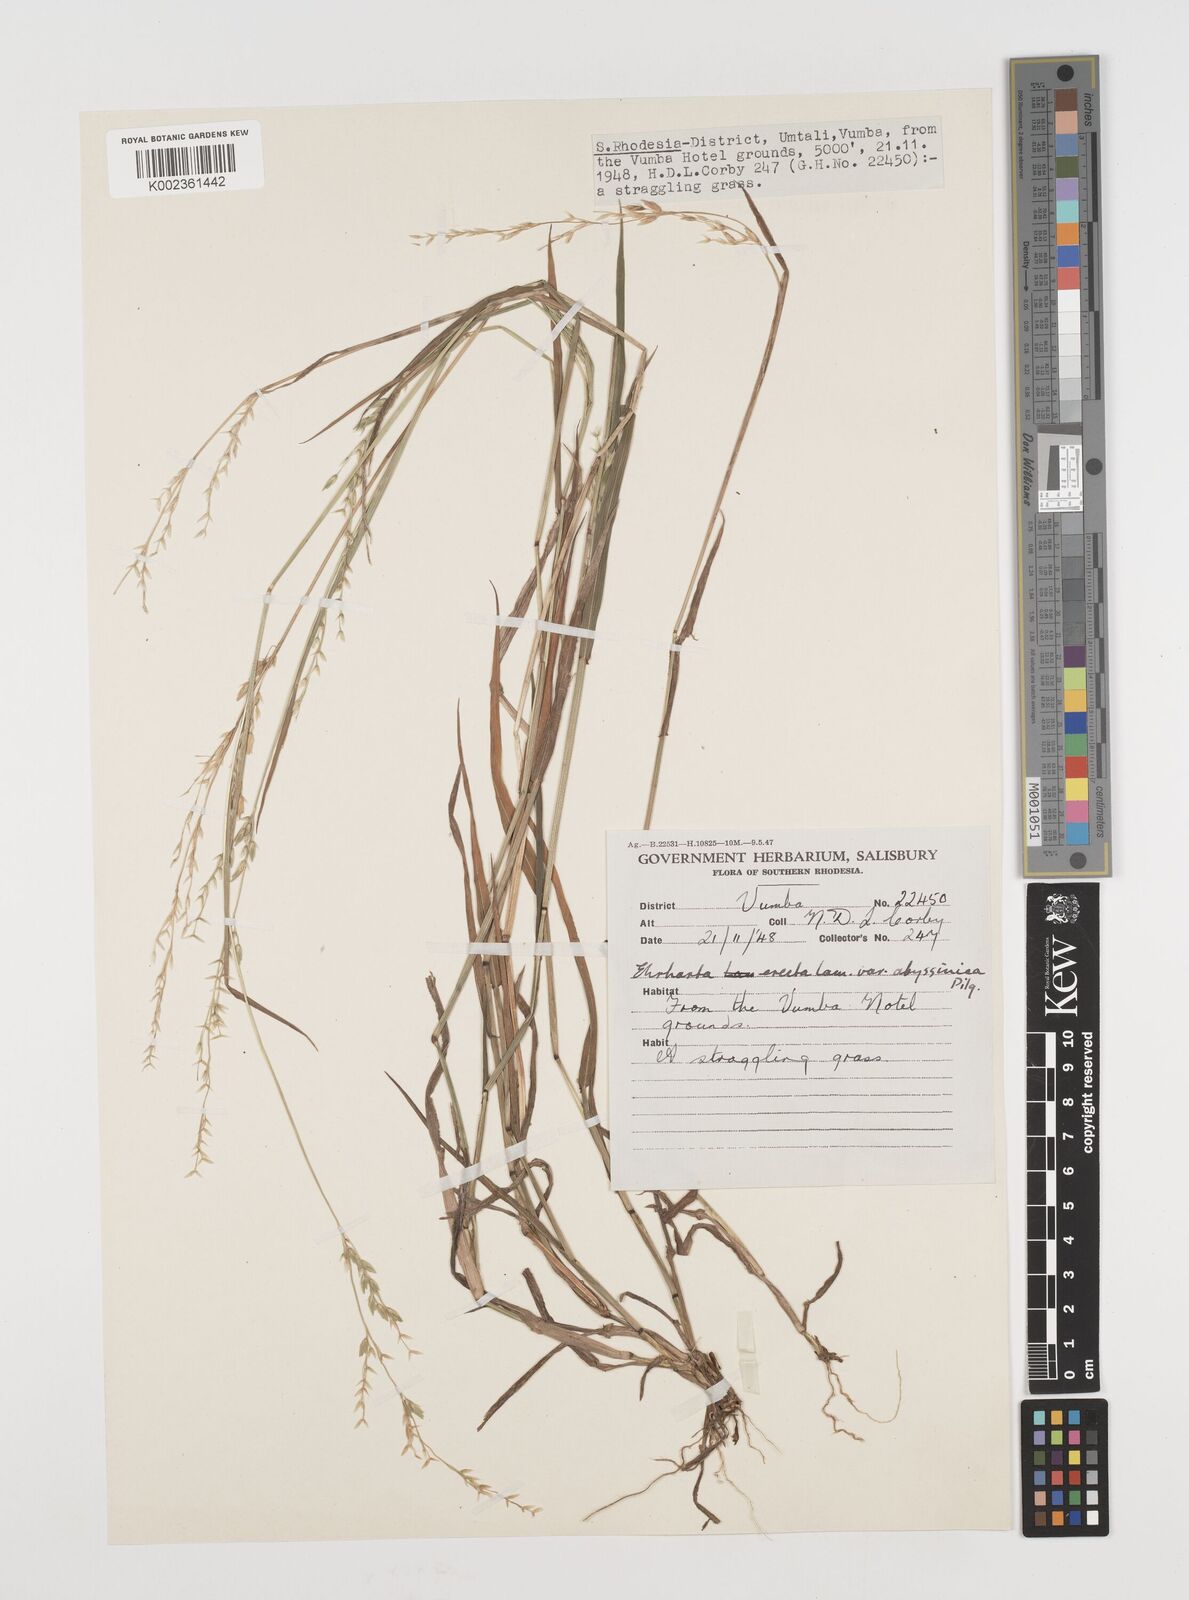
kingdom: Plantae
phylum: Tracheophyta
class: Liliopsida
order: Poales
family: Poaceae
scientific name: Poaceae
